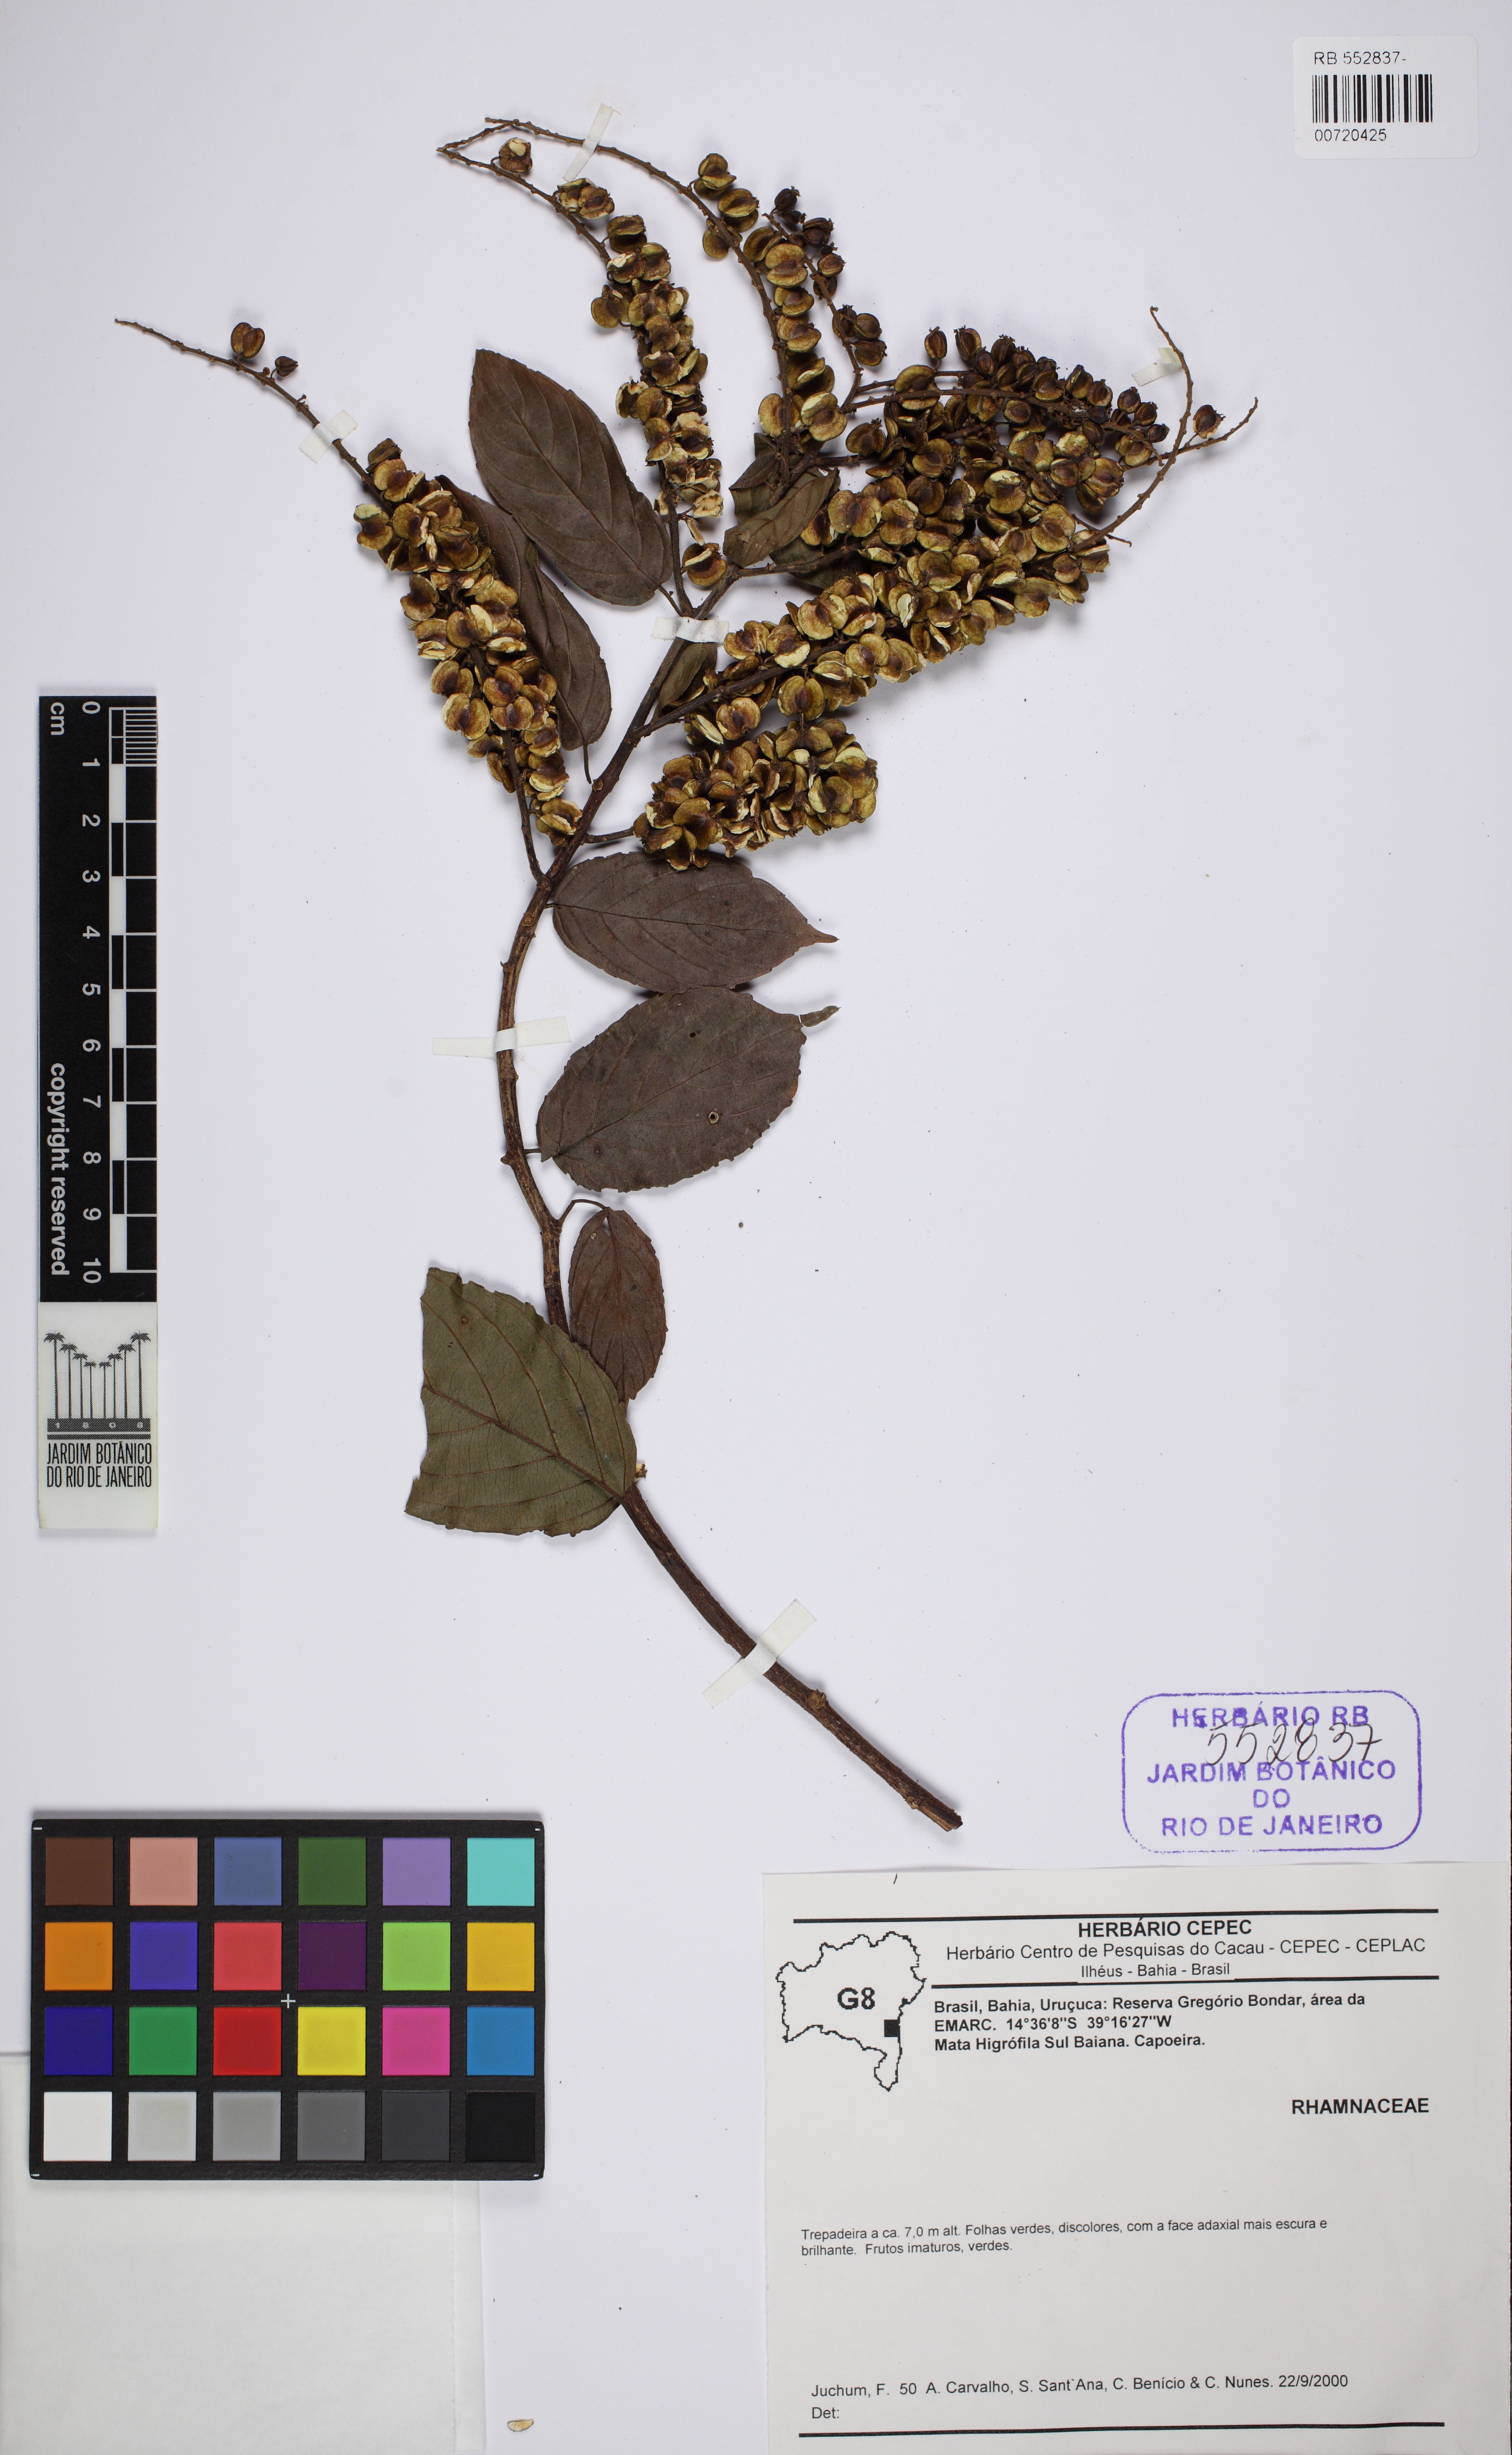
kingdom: Plantae
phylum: Tracheophyta
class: Magnoliopsida
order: Rosales
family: Rhamnaceae
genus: Gouania
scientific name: Gouania
